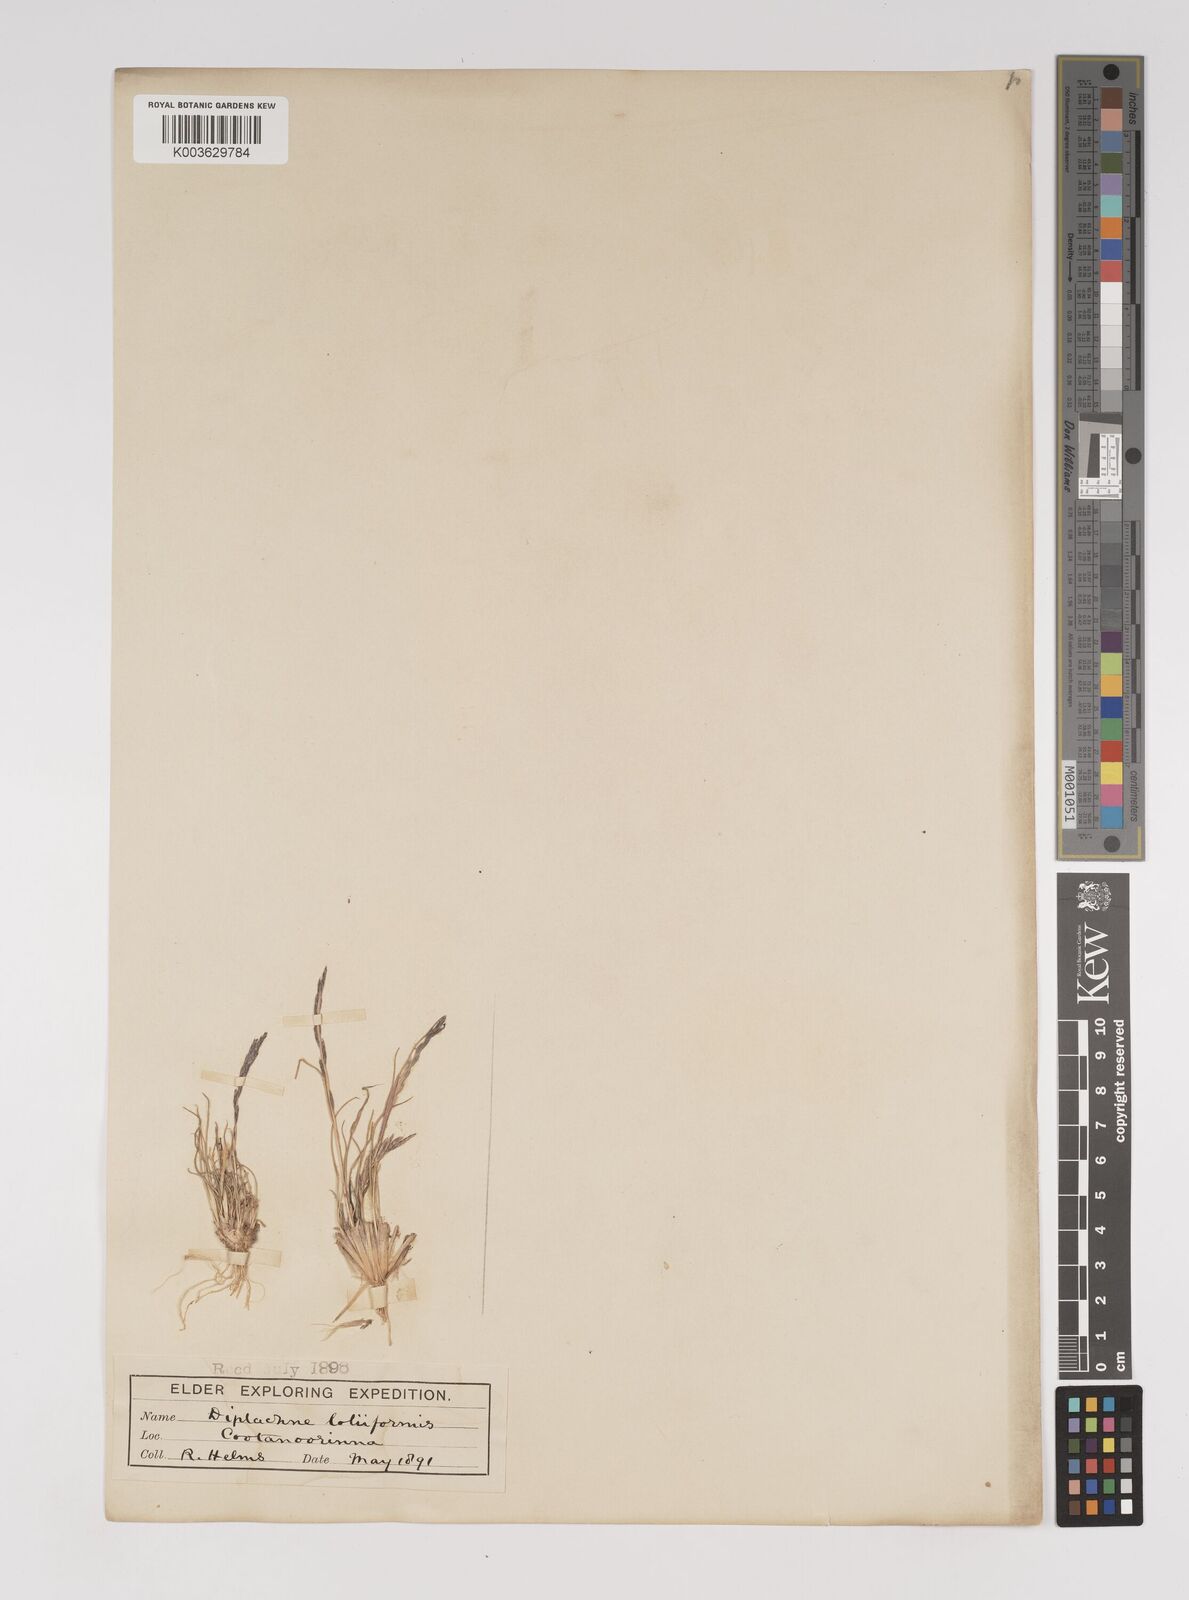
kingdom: Plantae
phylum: Tracheophyta
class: Liliopsida
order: Poales
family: Poaceae
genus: Tripogonella
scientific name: Tripogonella loliiformis
